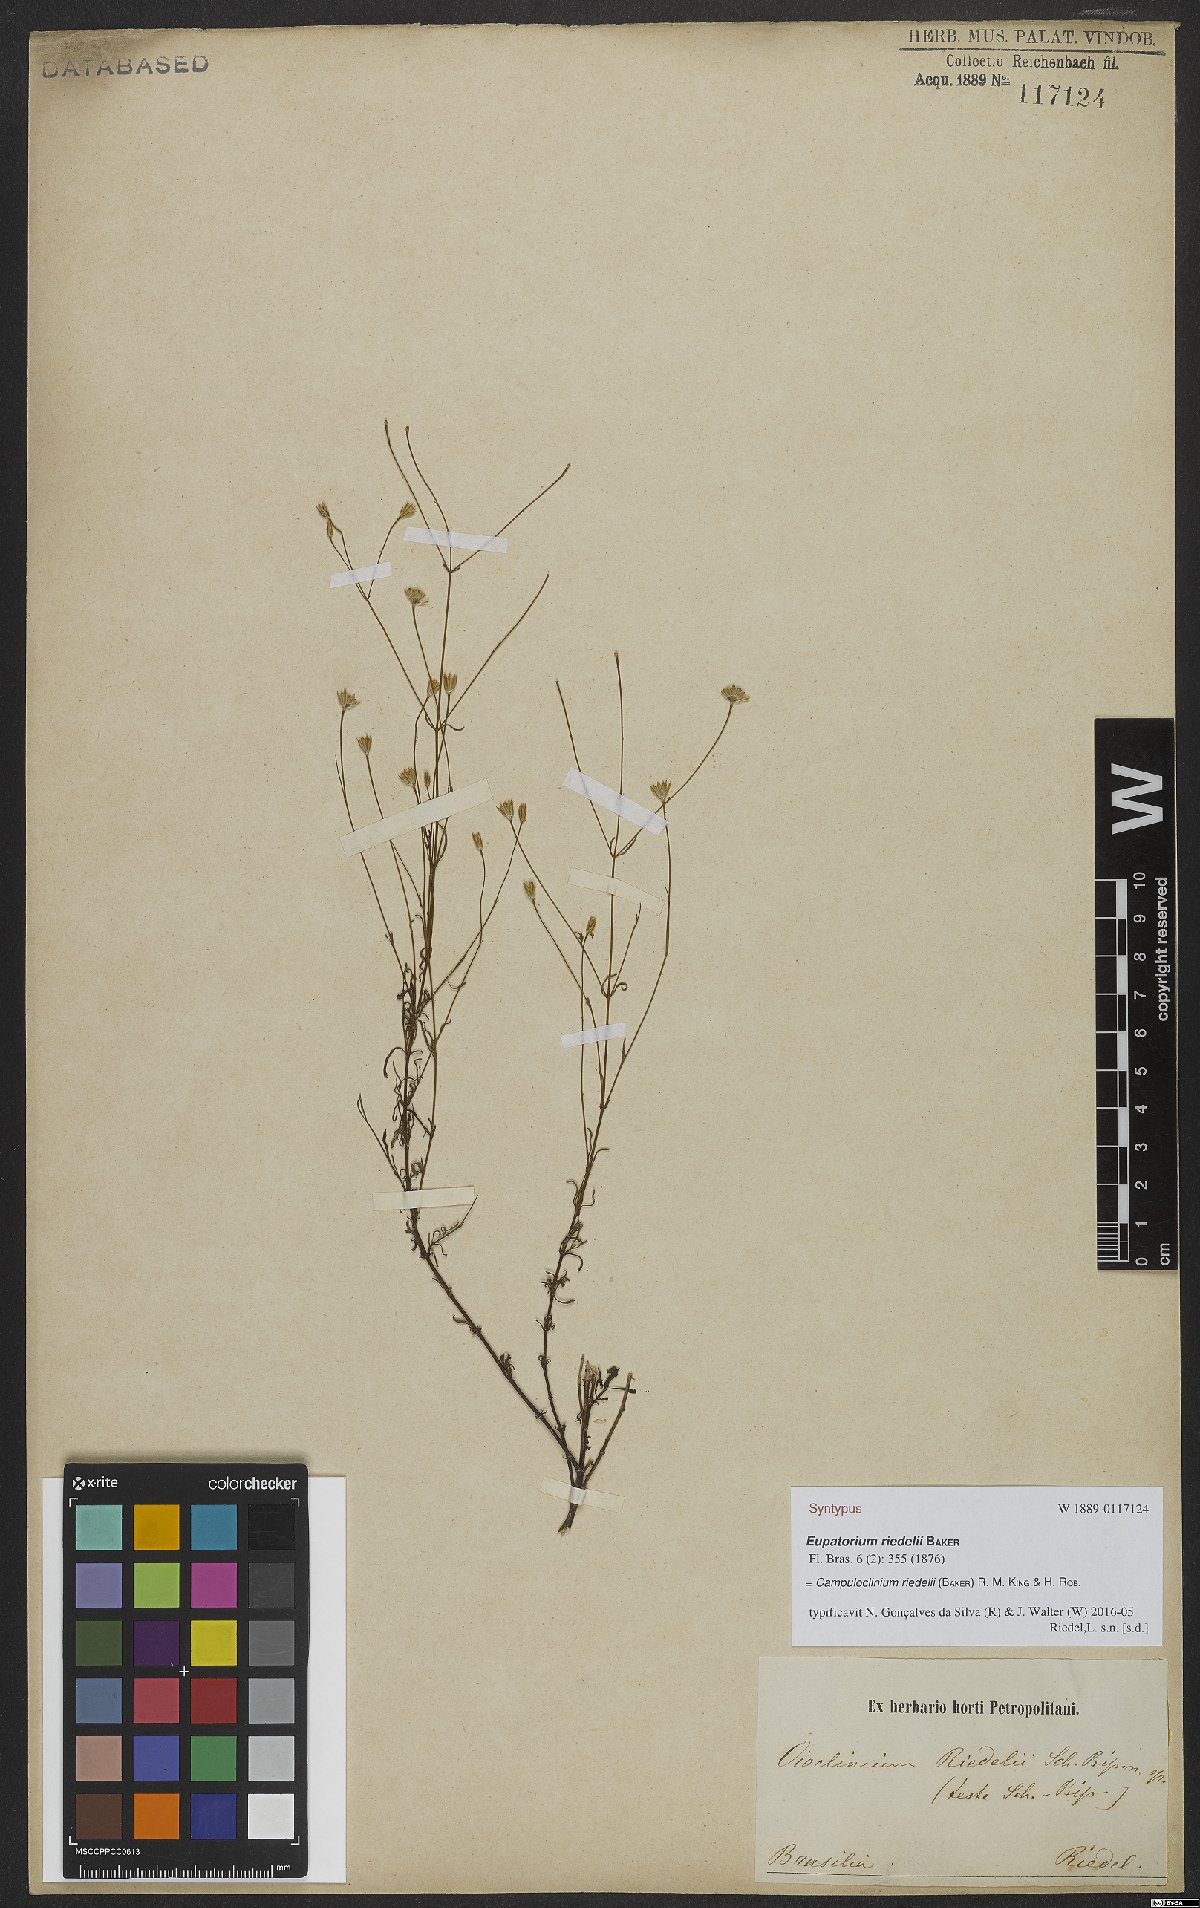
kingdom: Plantae
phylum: Tracheophyta
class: Magnoliopsida
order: Asterales
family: Asteraceae
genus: Campuloclinium
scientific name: Campuloclinium riedelii
